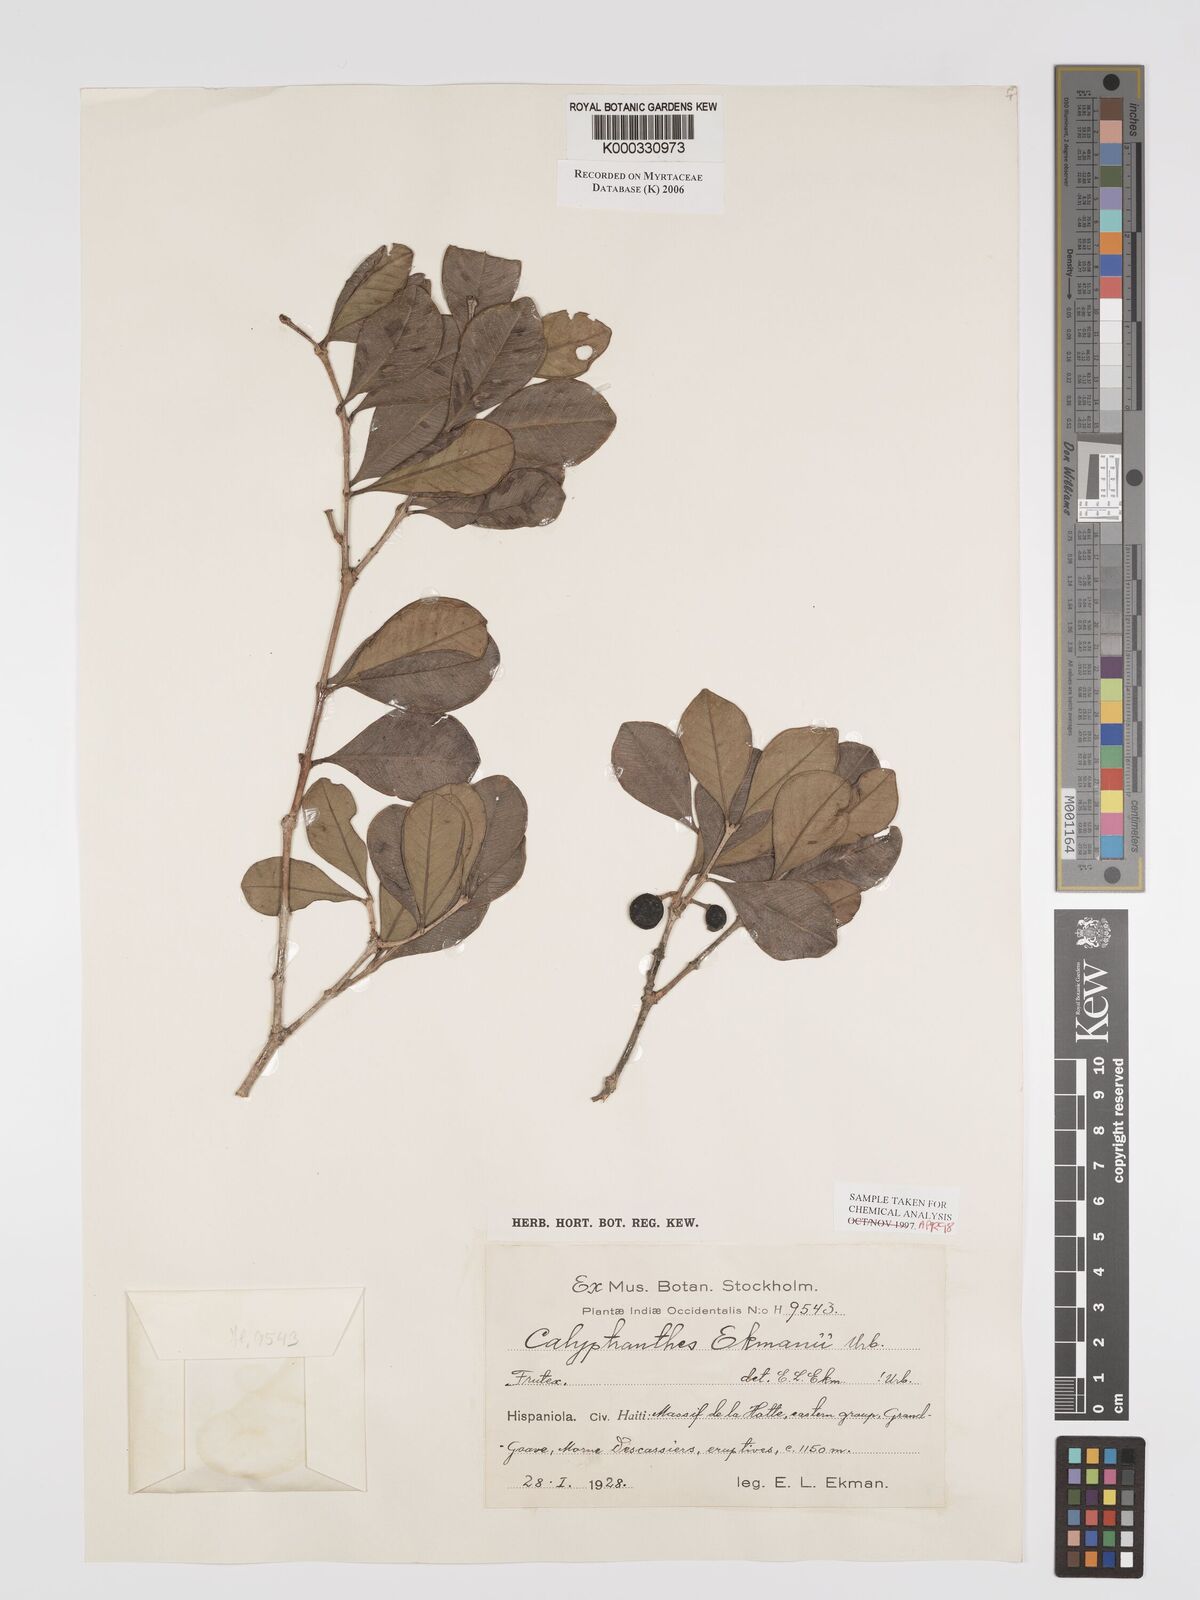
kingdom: Plantae
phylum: Tracheophyta
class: Magnoliopsida
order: Myrtales
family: Myrtaceae
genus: Calyptrogenia
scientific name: Calyptrogenia ekmanii
